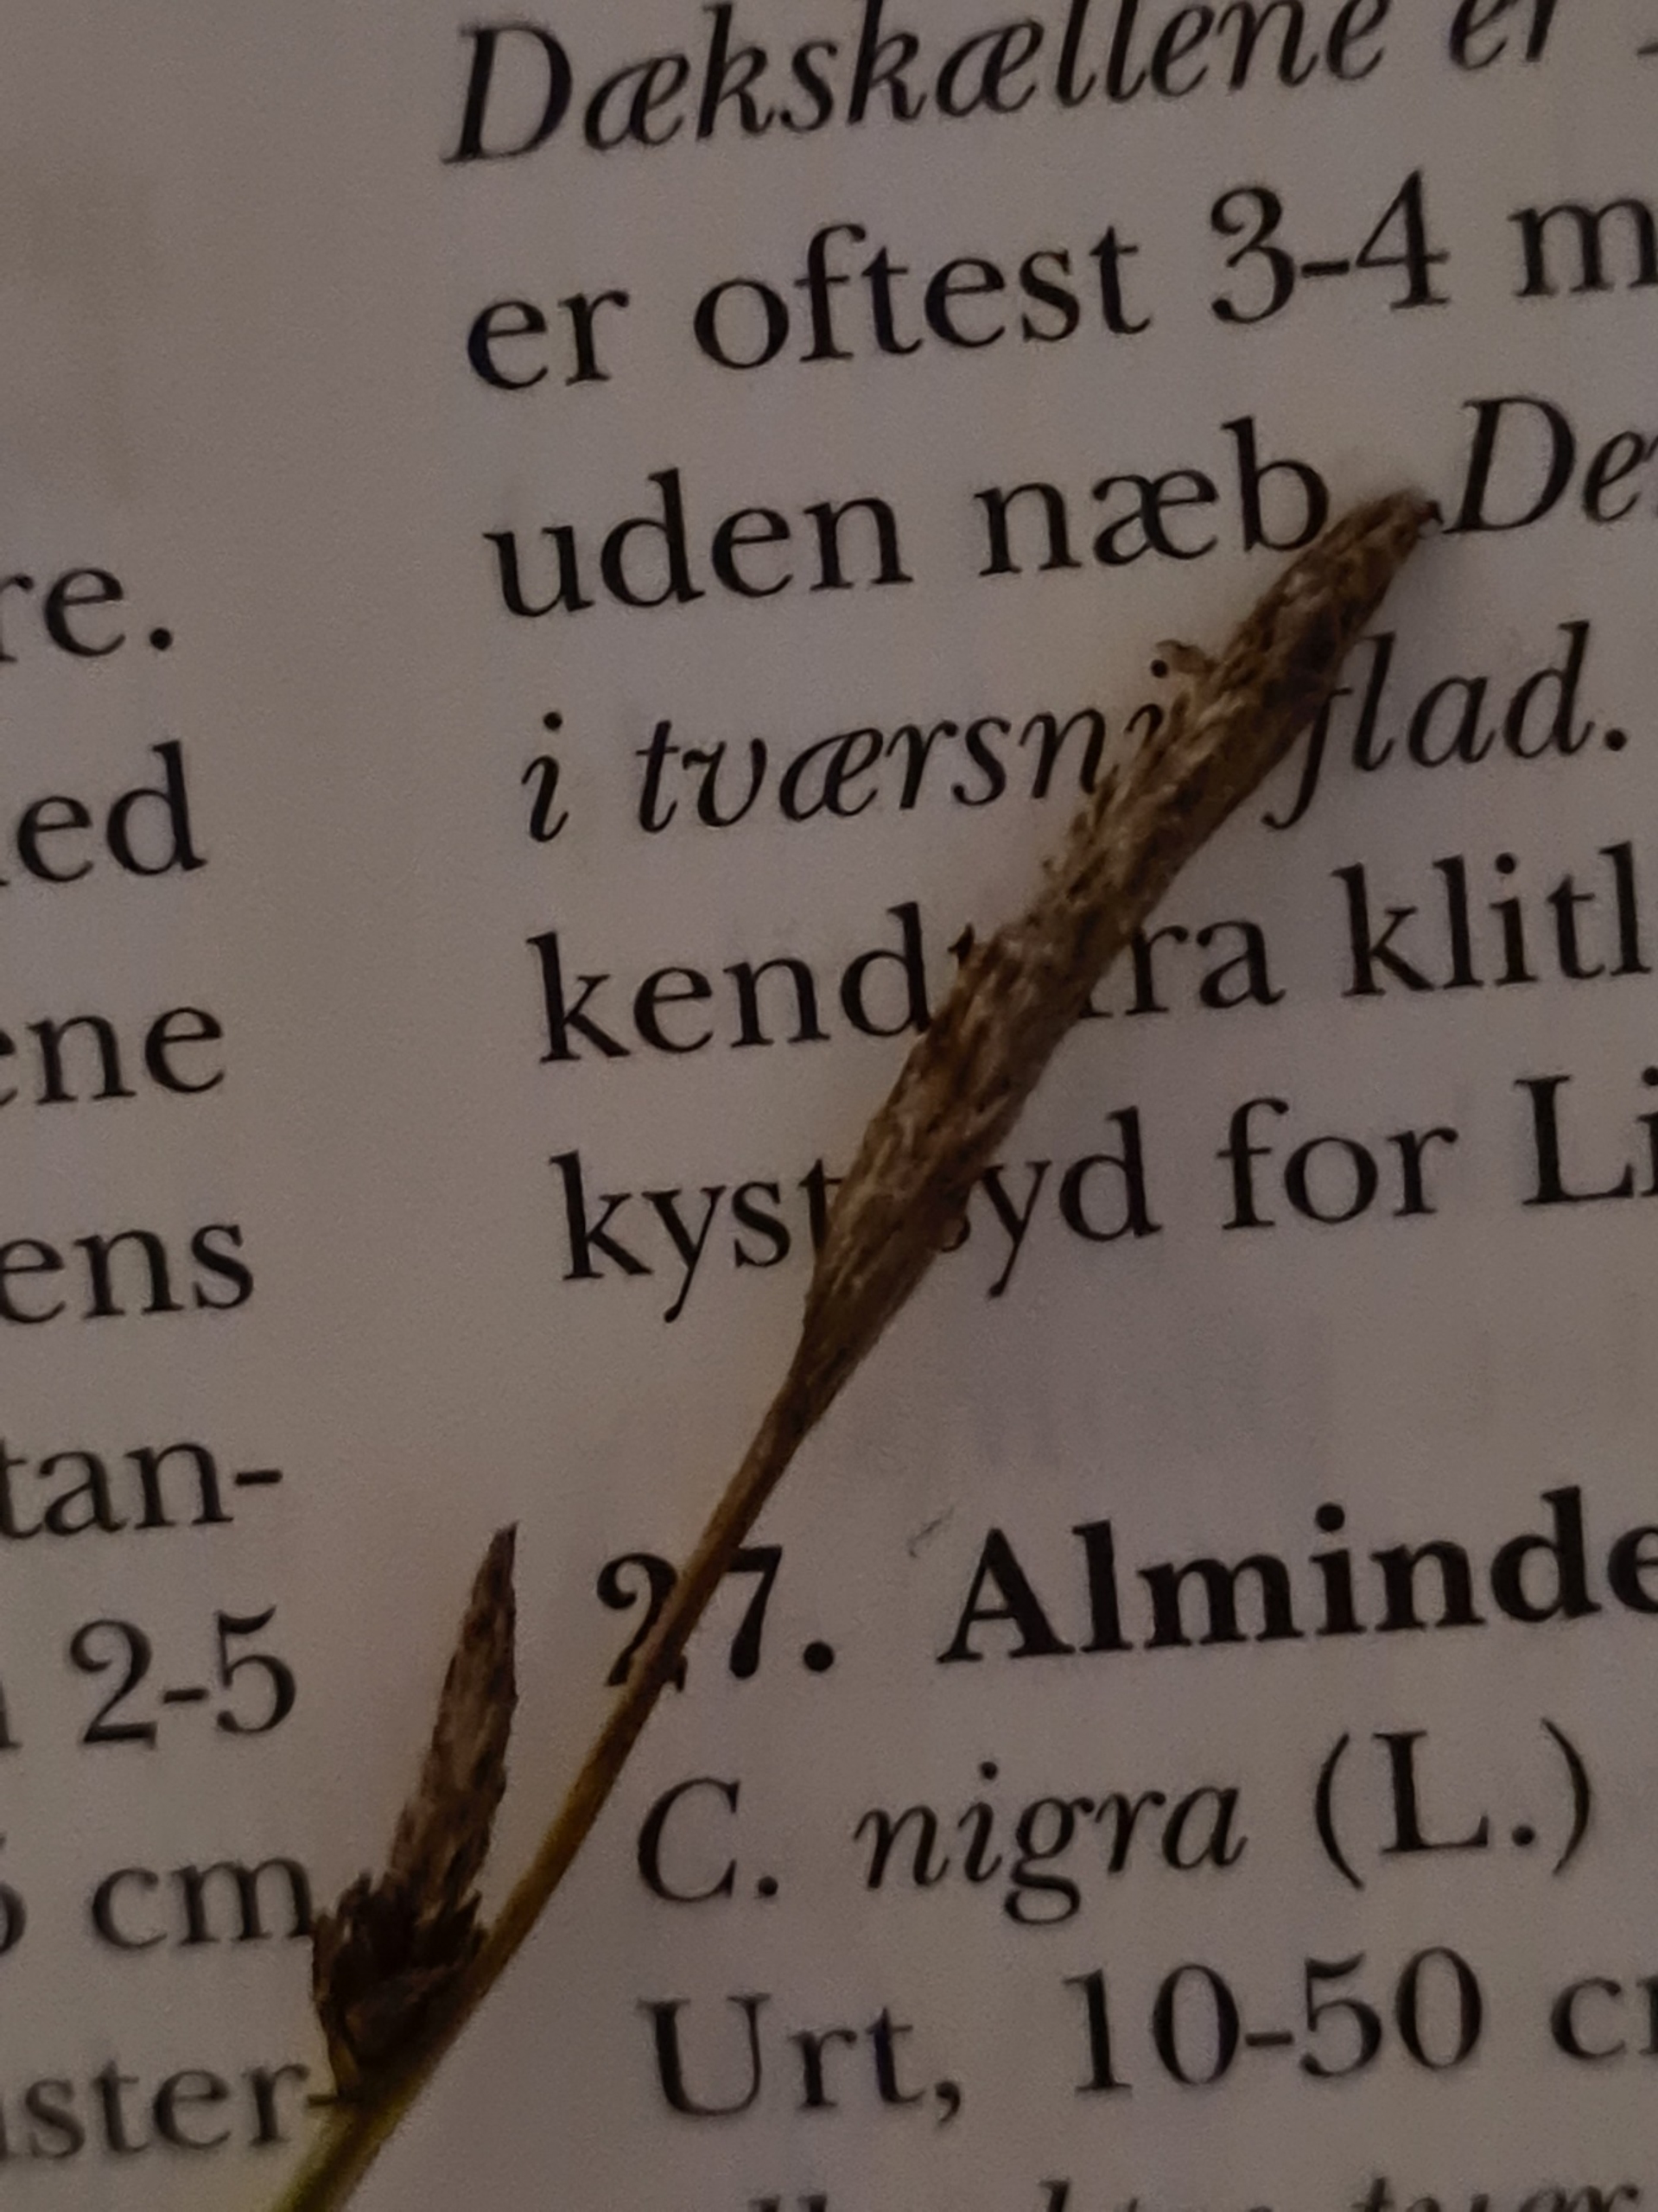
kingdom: Plantae
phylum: Tracheophyta
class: Liliopsida
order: Poales
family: Cyperaceae
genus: Carex
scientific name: Carex nigra
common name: Almindelig star
